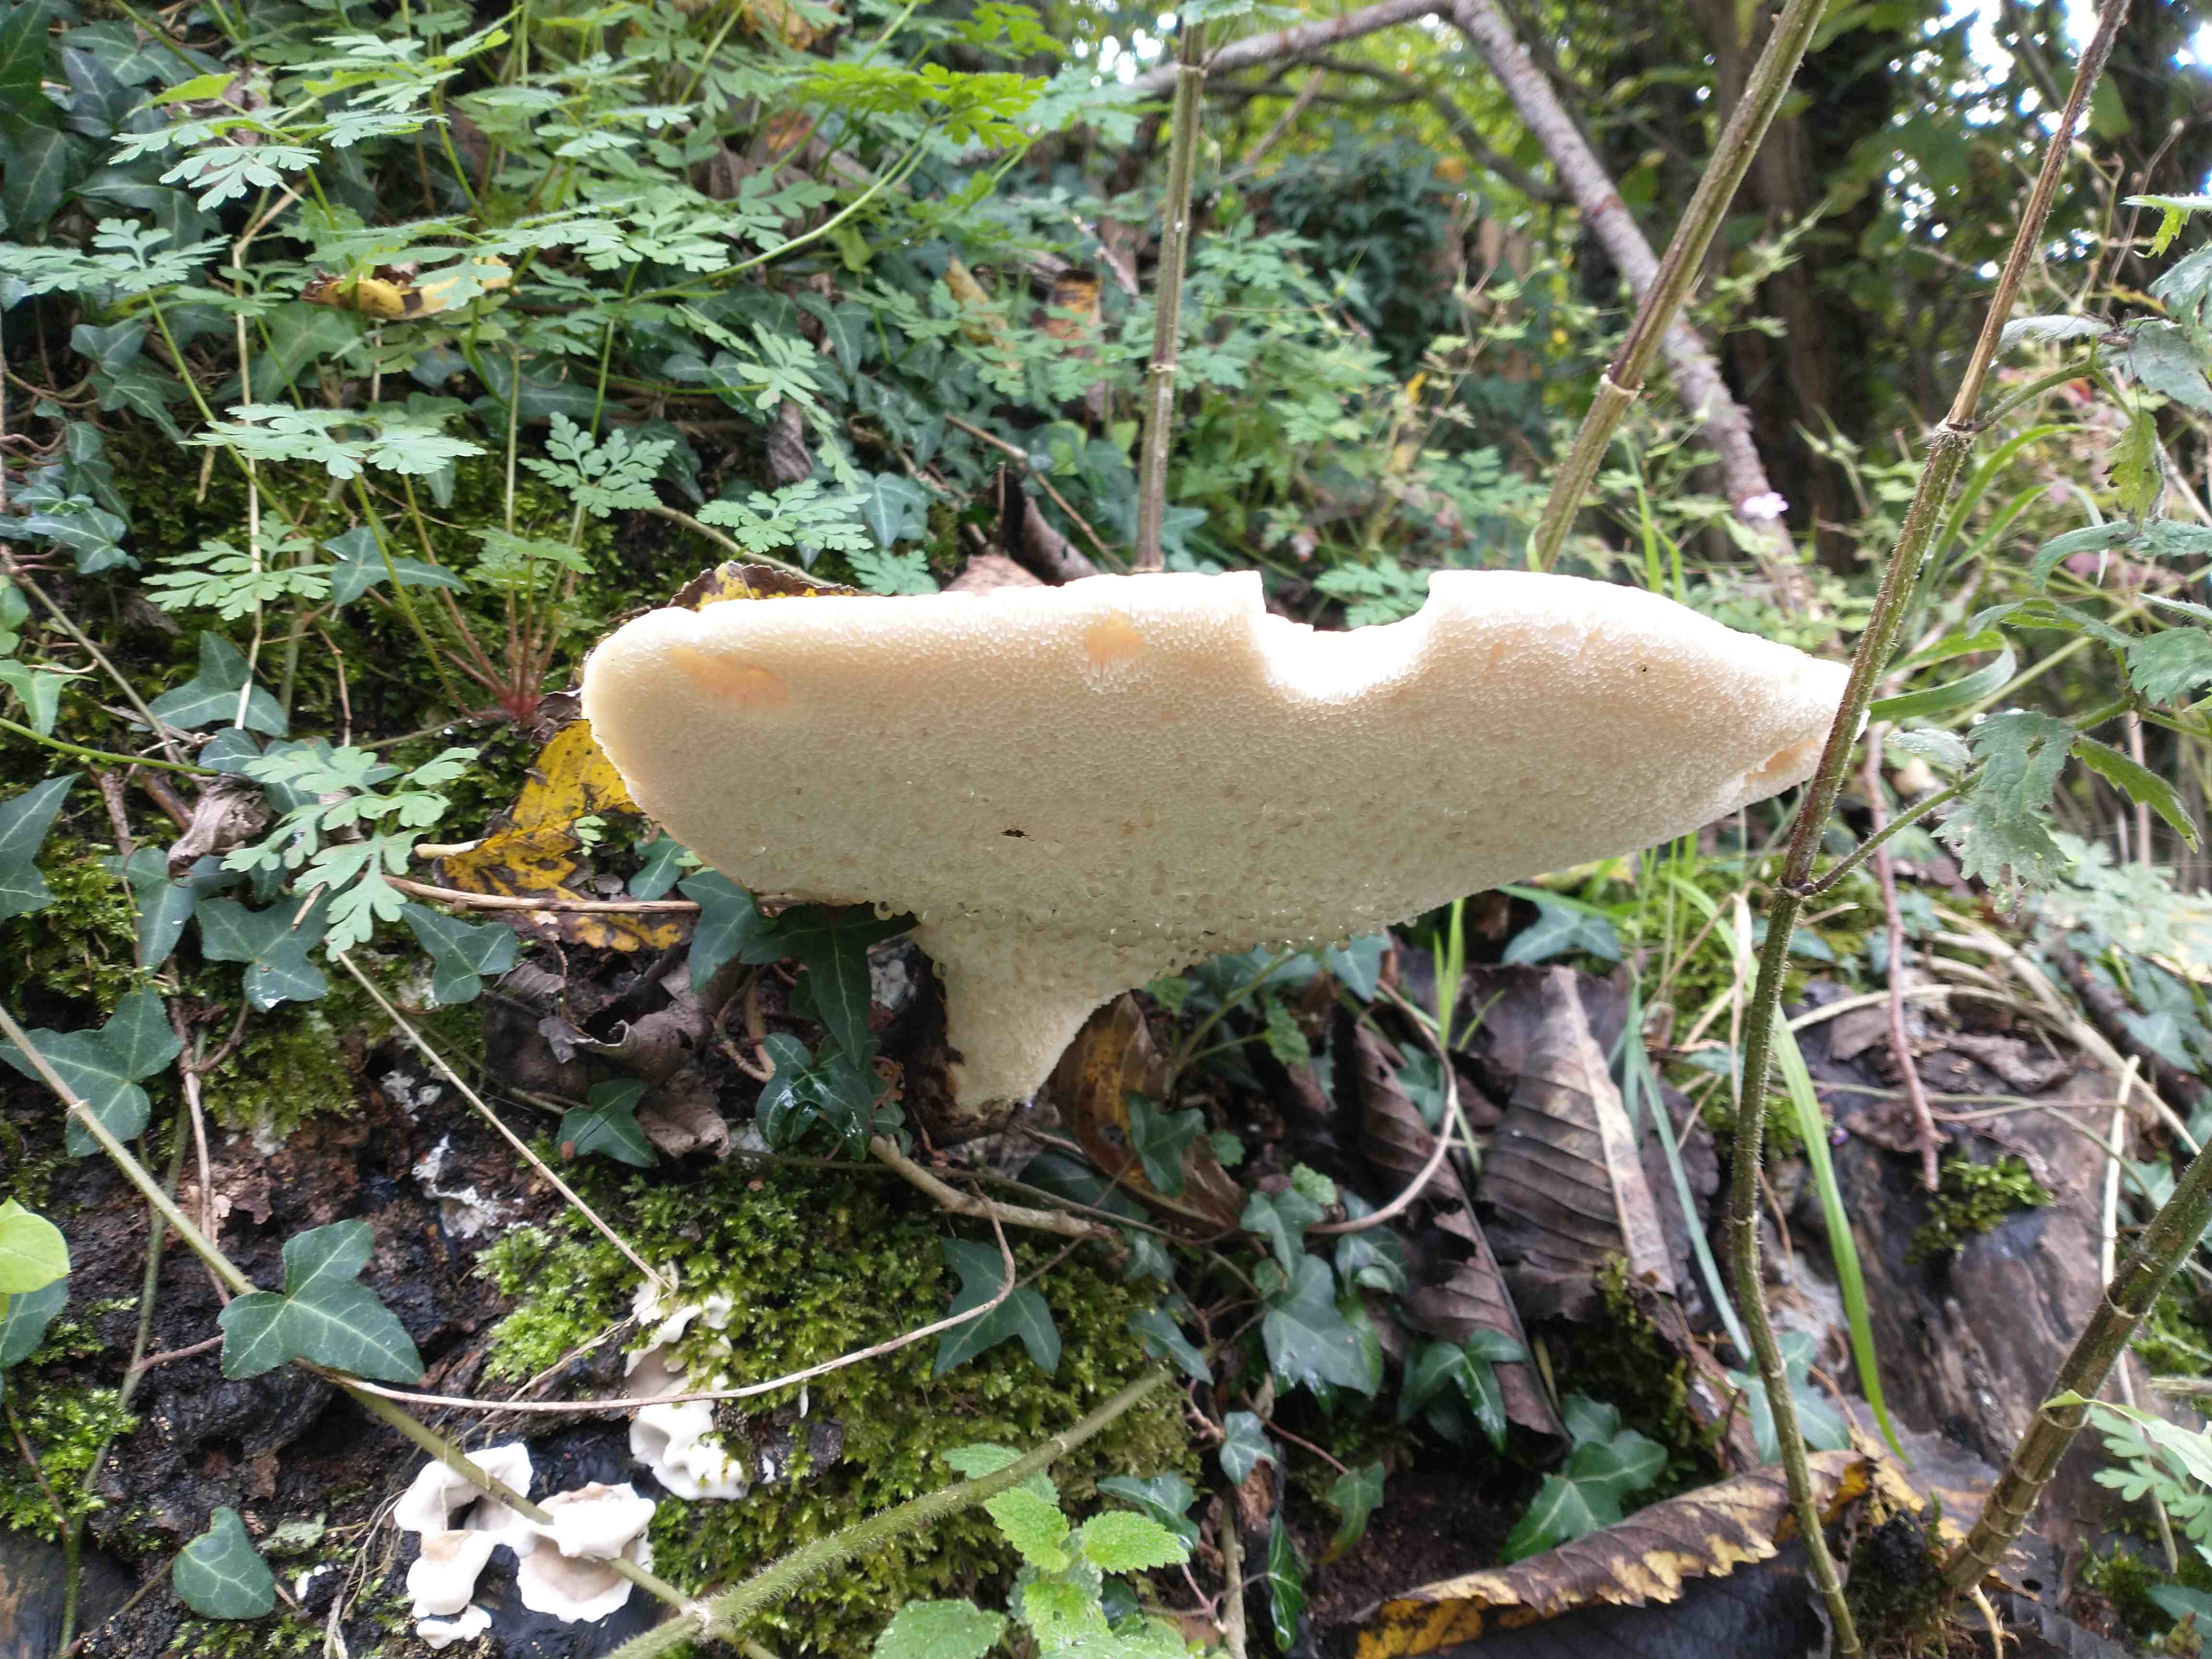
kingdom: Fungi
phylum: Basidiomycota
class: Agaricomycetes
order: Polyporales
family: Polyporaceae
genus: Cerioporus
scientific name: Cerioporus squamosus
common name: skællet stilkporesvamp
